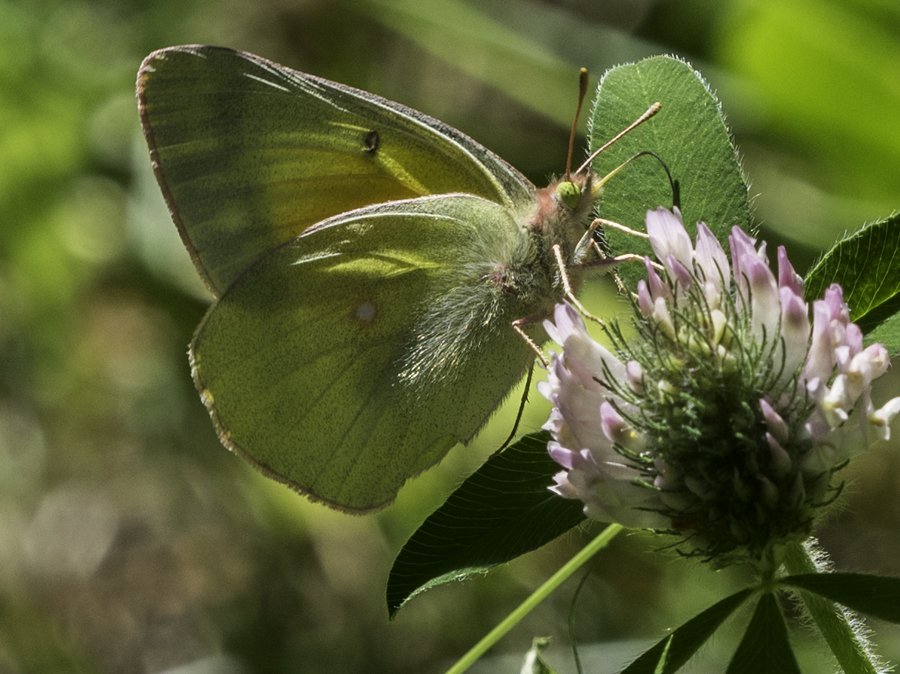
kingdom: Animalia
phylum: Arthropoda
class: Insecta
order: Lepidoptera
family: Pieridae
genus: Colias
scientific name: Colias christina
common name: Christina Sulphur
